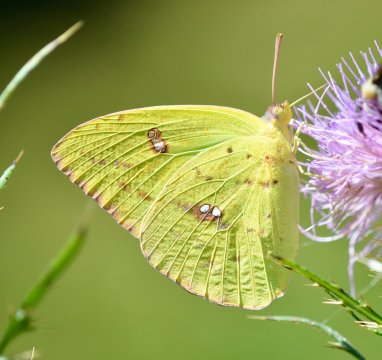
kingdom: Animalia
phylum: Arthropoda
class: Insecta
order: Lepidoptera
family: Pieridae
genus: Phoebis
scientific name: Phoebis sennae
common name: Cloudless Sulphur
